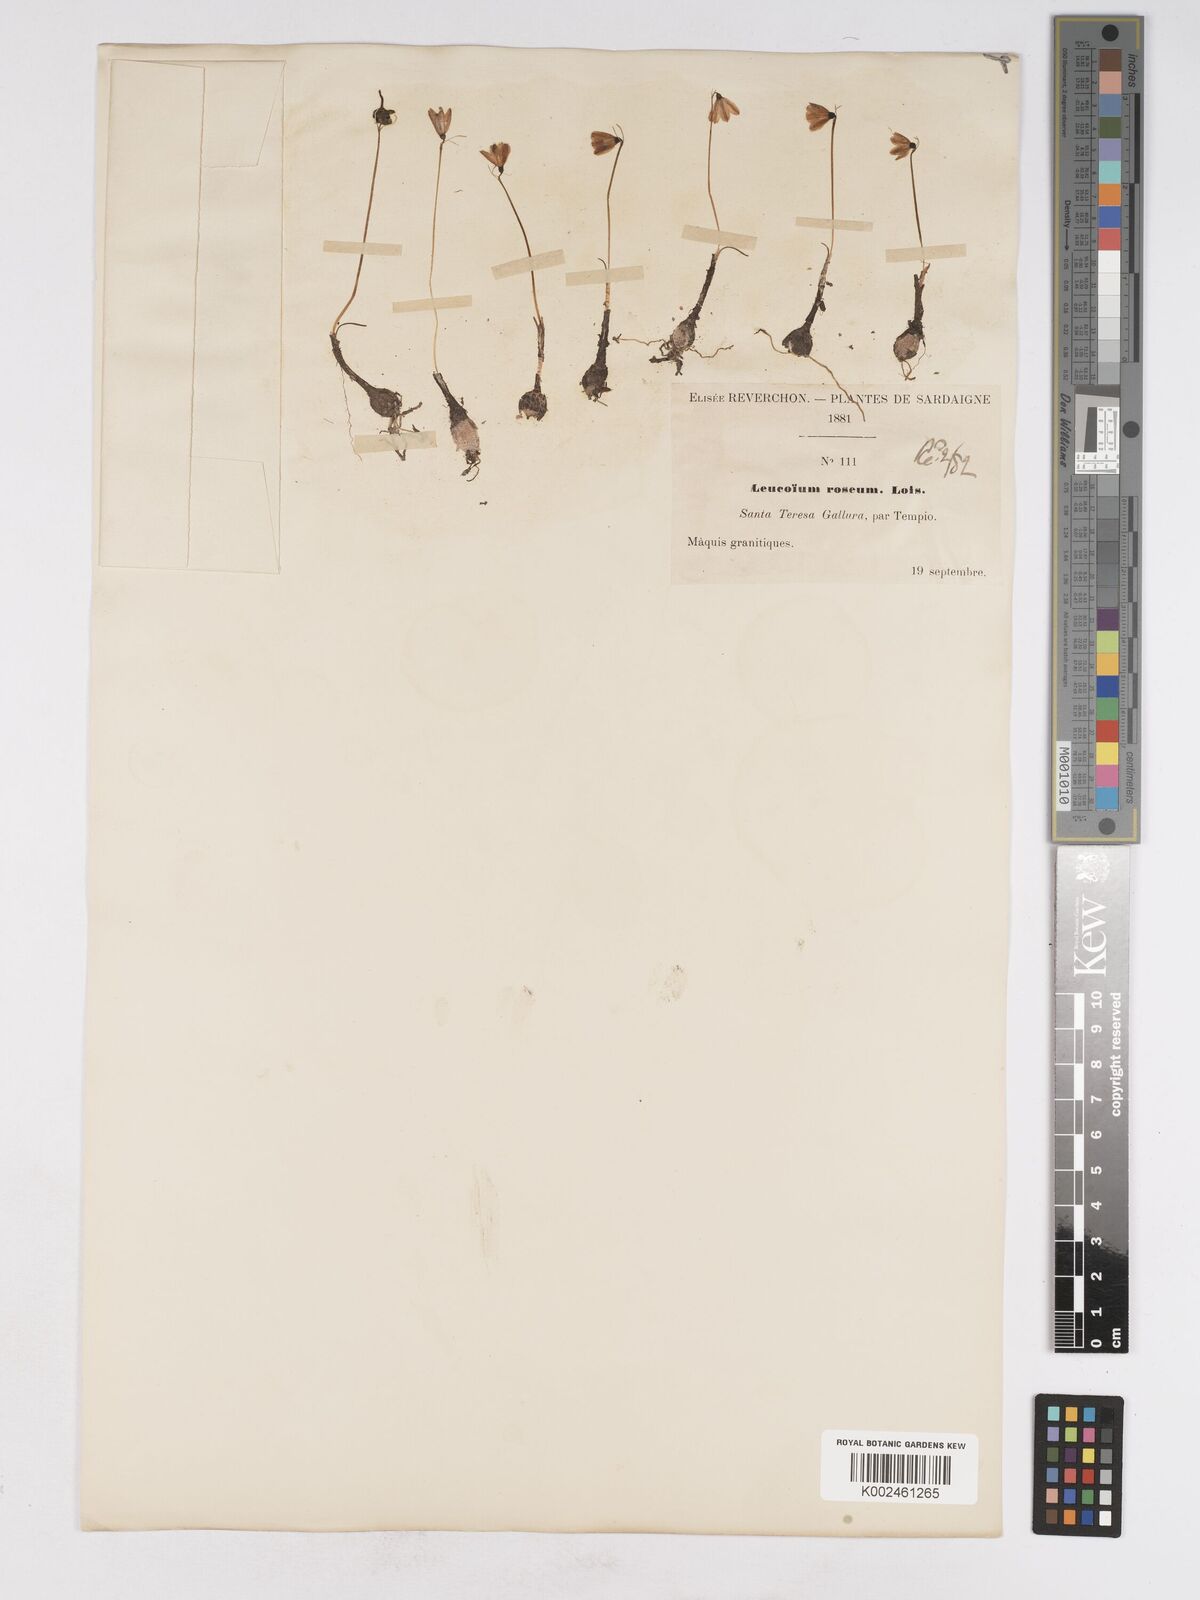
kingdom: Plantae
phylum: Tracheophyta
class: Liliopsida
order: Asparagales
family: Amaryllidaceae
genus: Acis
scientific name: Acis rosea
